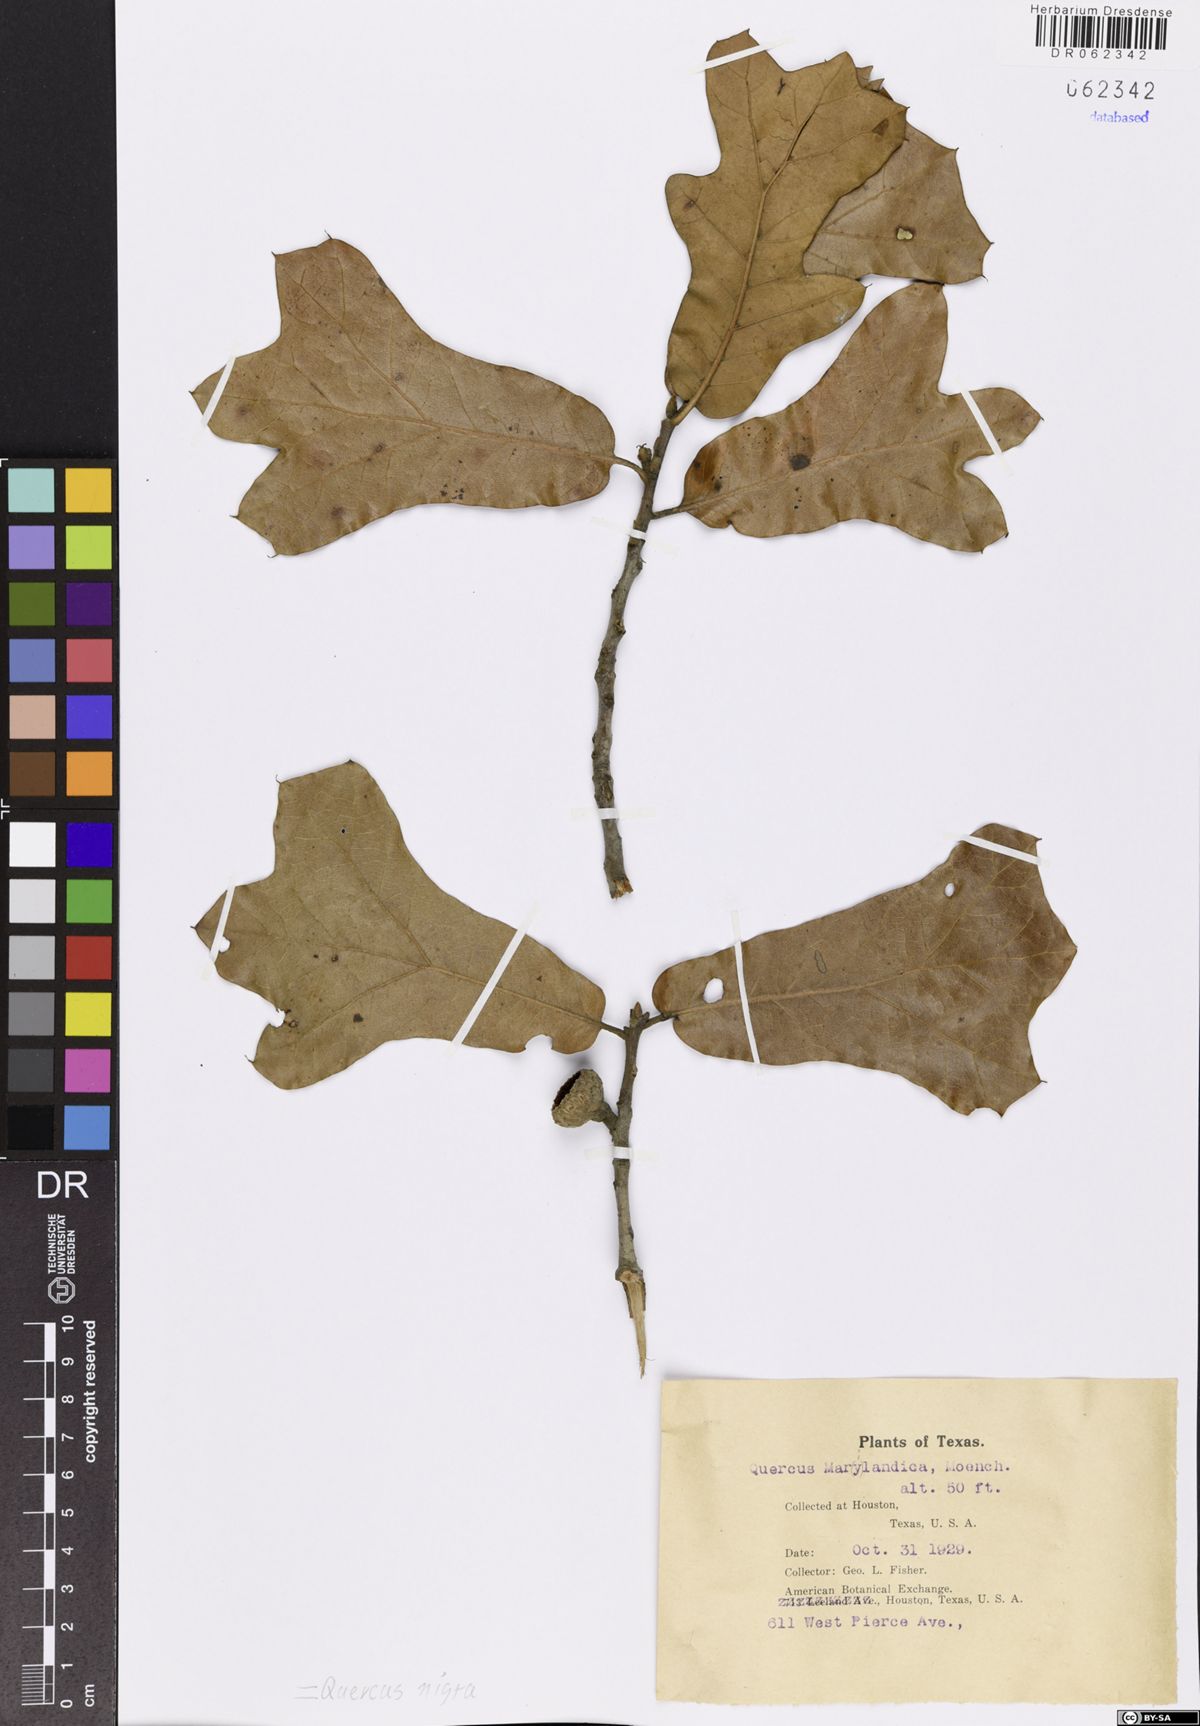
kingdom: Plantae
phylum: Tracheophyta
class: Magnoliopsida
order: Fagales
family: Fagaceae
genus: Quercus
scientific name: Quercus nigra
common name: Water oak
